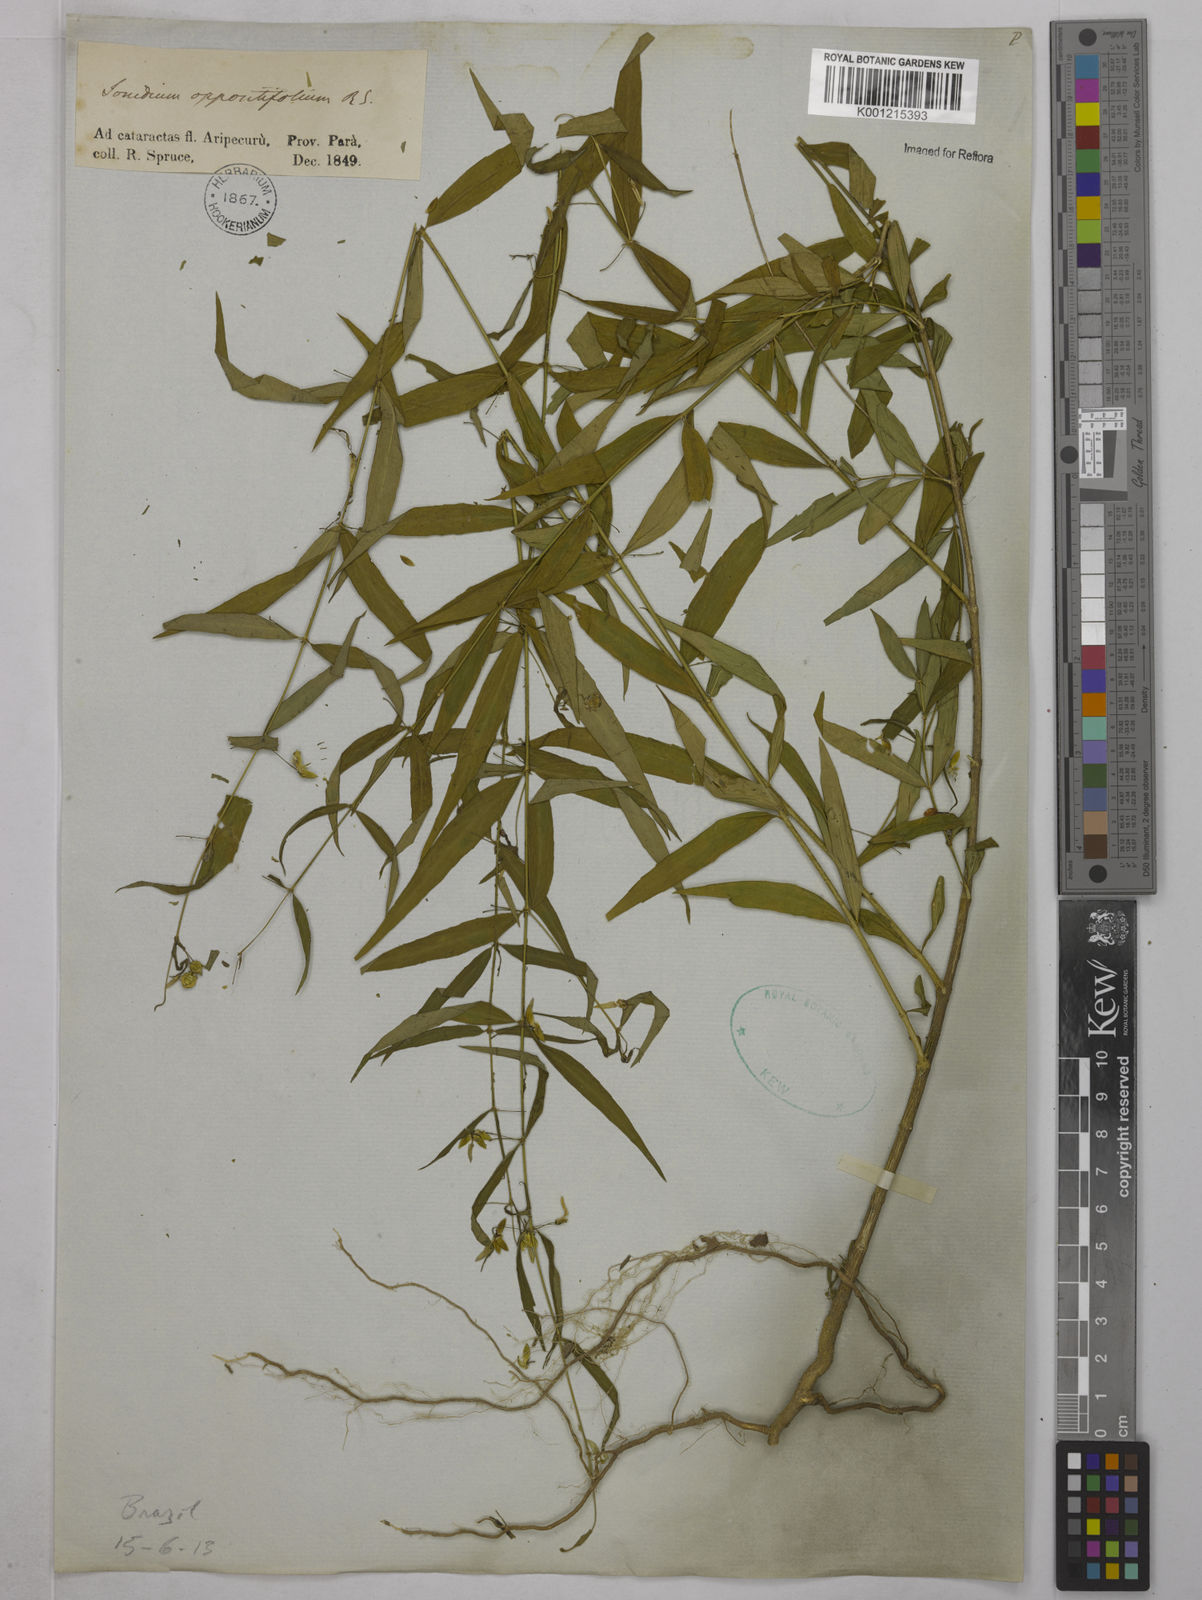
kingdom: Plantae
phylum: Tracheophyta
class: Magnoliopsida
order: Malpighiales
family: Violaceae
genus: Pombalia
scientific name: Pombalia oppositifolia
